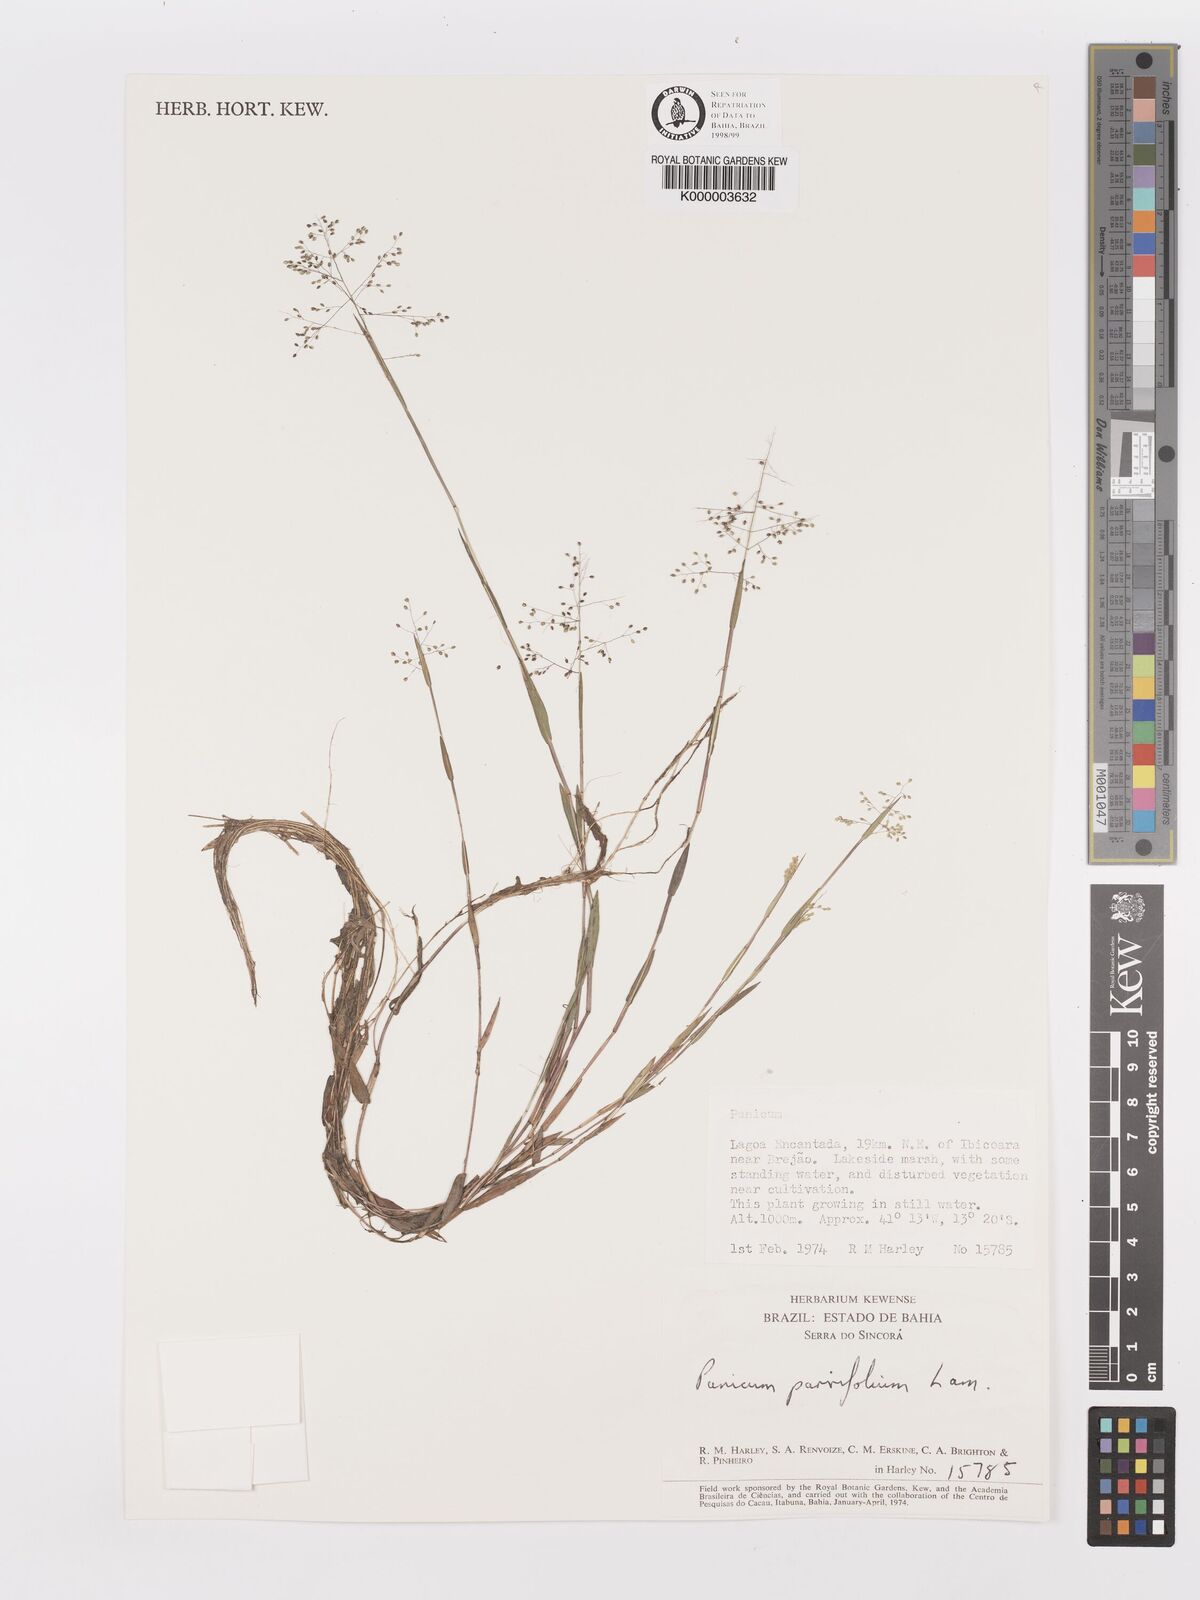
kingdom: Plantae
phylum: Tracheophyta
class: Liliopsida
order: Poales
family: Poaceae
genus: Trichanthecium
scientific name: Trichanthecium parvifolium
